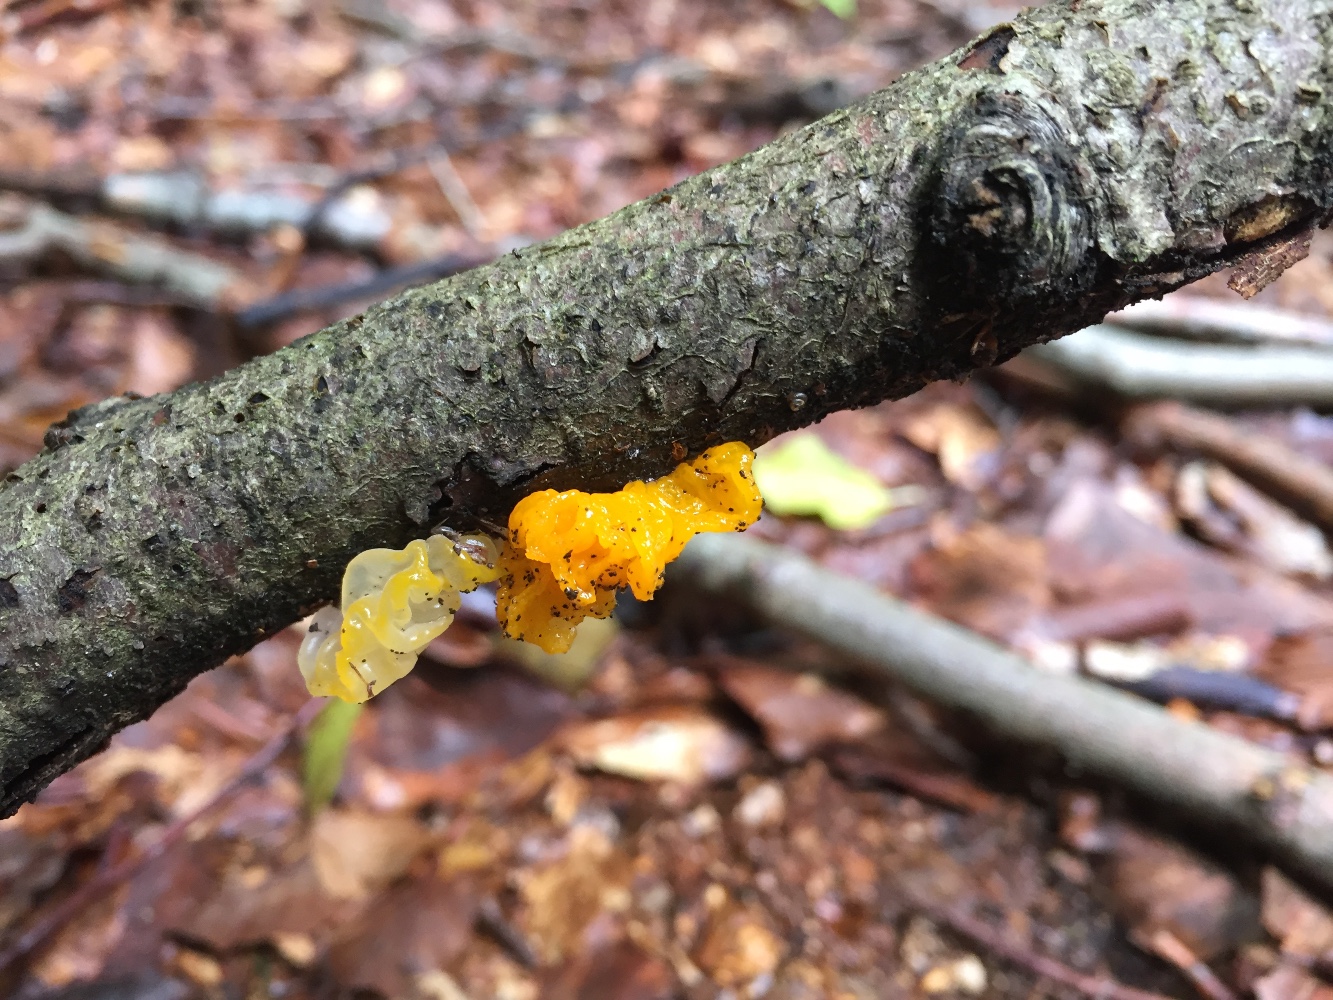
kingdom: Fungi
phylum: Basidiomycota
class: Tremellomycetes
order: Tremellales
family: Tremellaceae
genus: Tremella
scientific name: Tremella mesenterica
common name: gul bævresvamp
